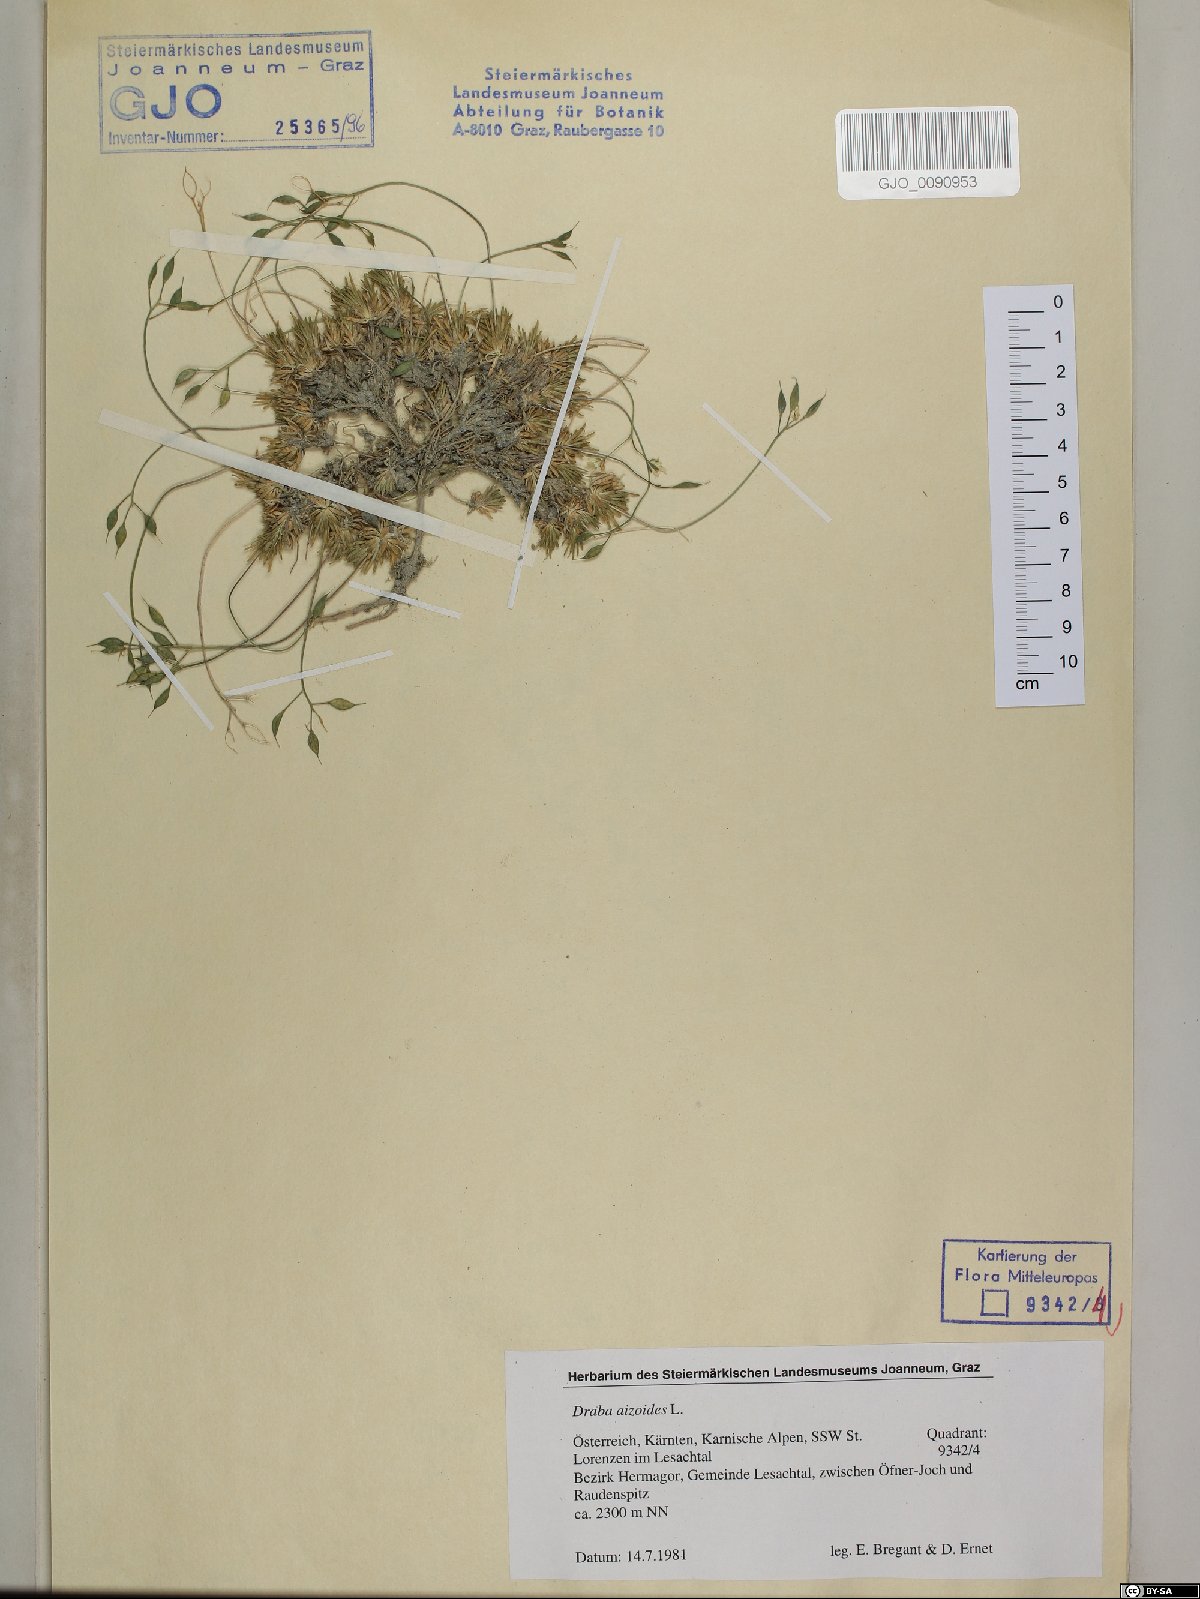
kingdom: Plantae
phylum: Tracheophyta
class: Magnoliopsida
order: Brassicales
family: Brassicaceae
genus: Draba
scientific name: Draba aizoides
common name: Yellow whitlowgrass
